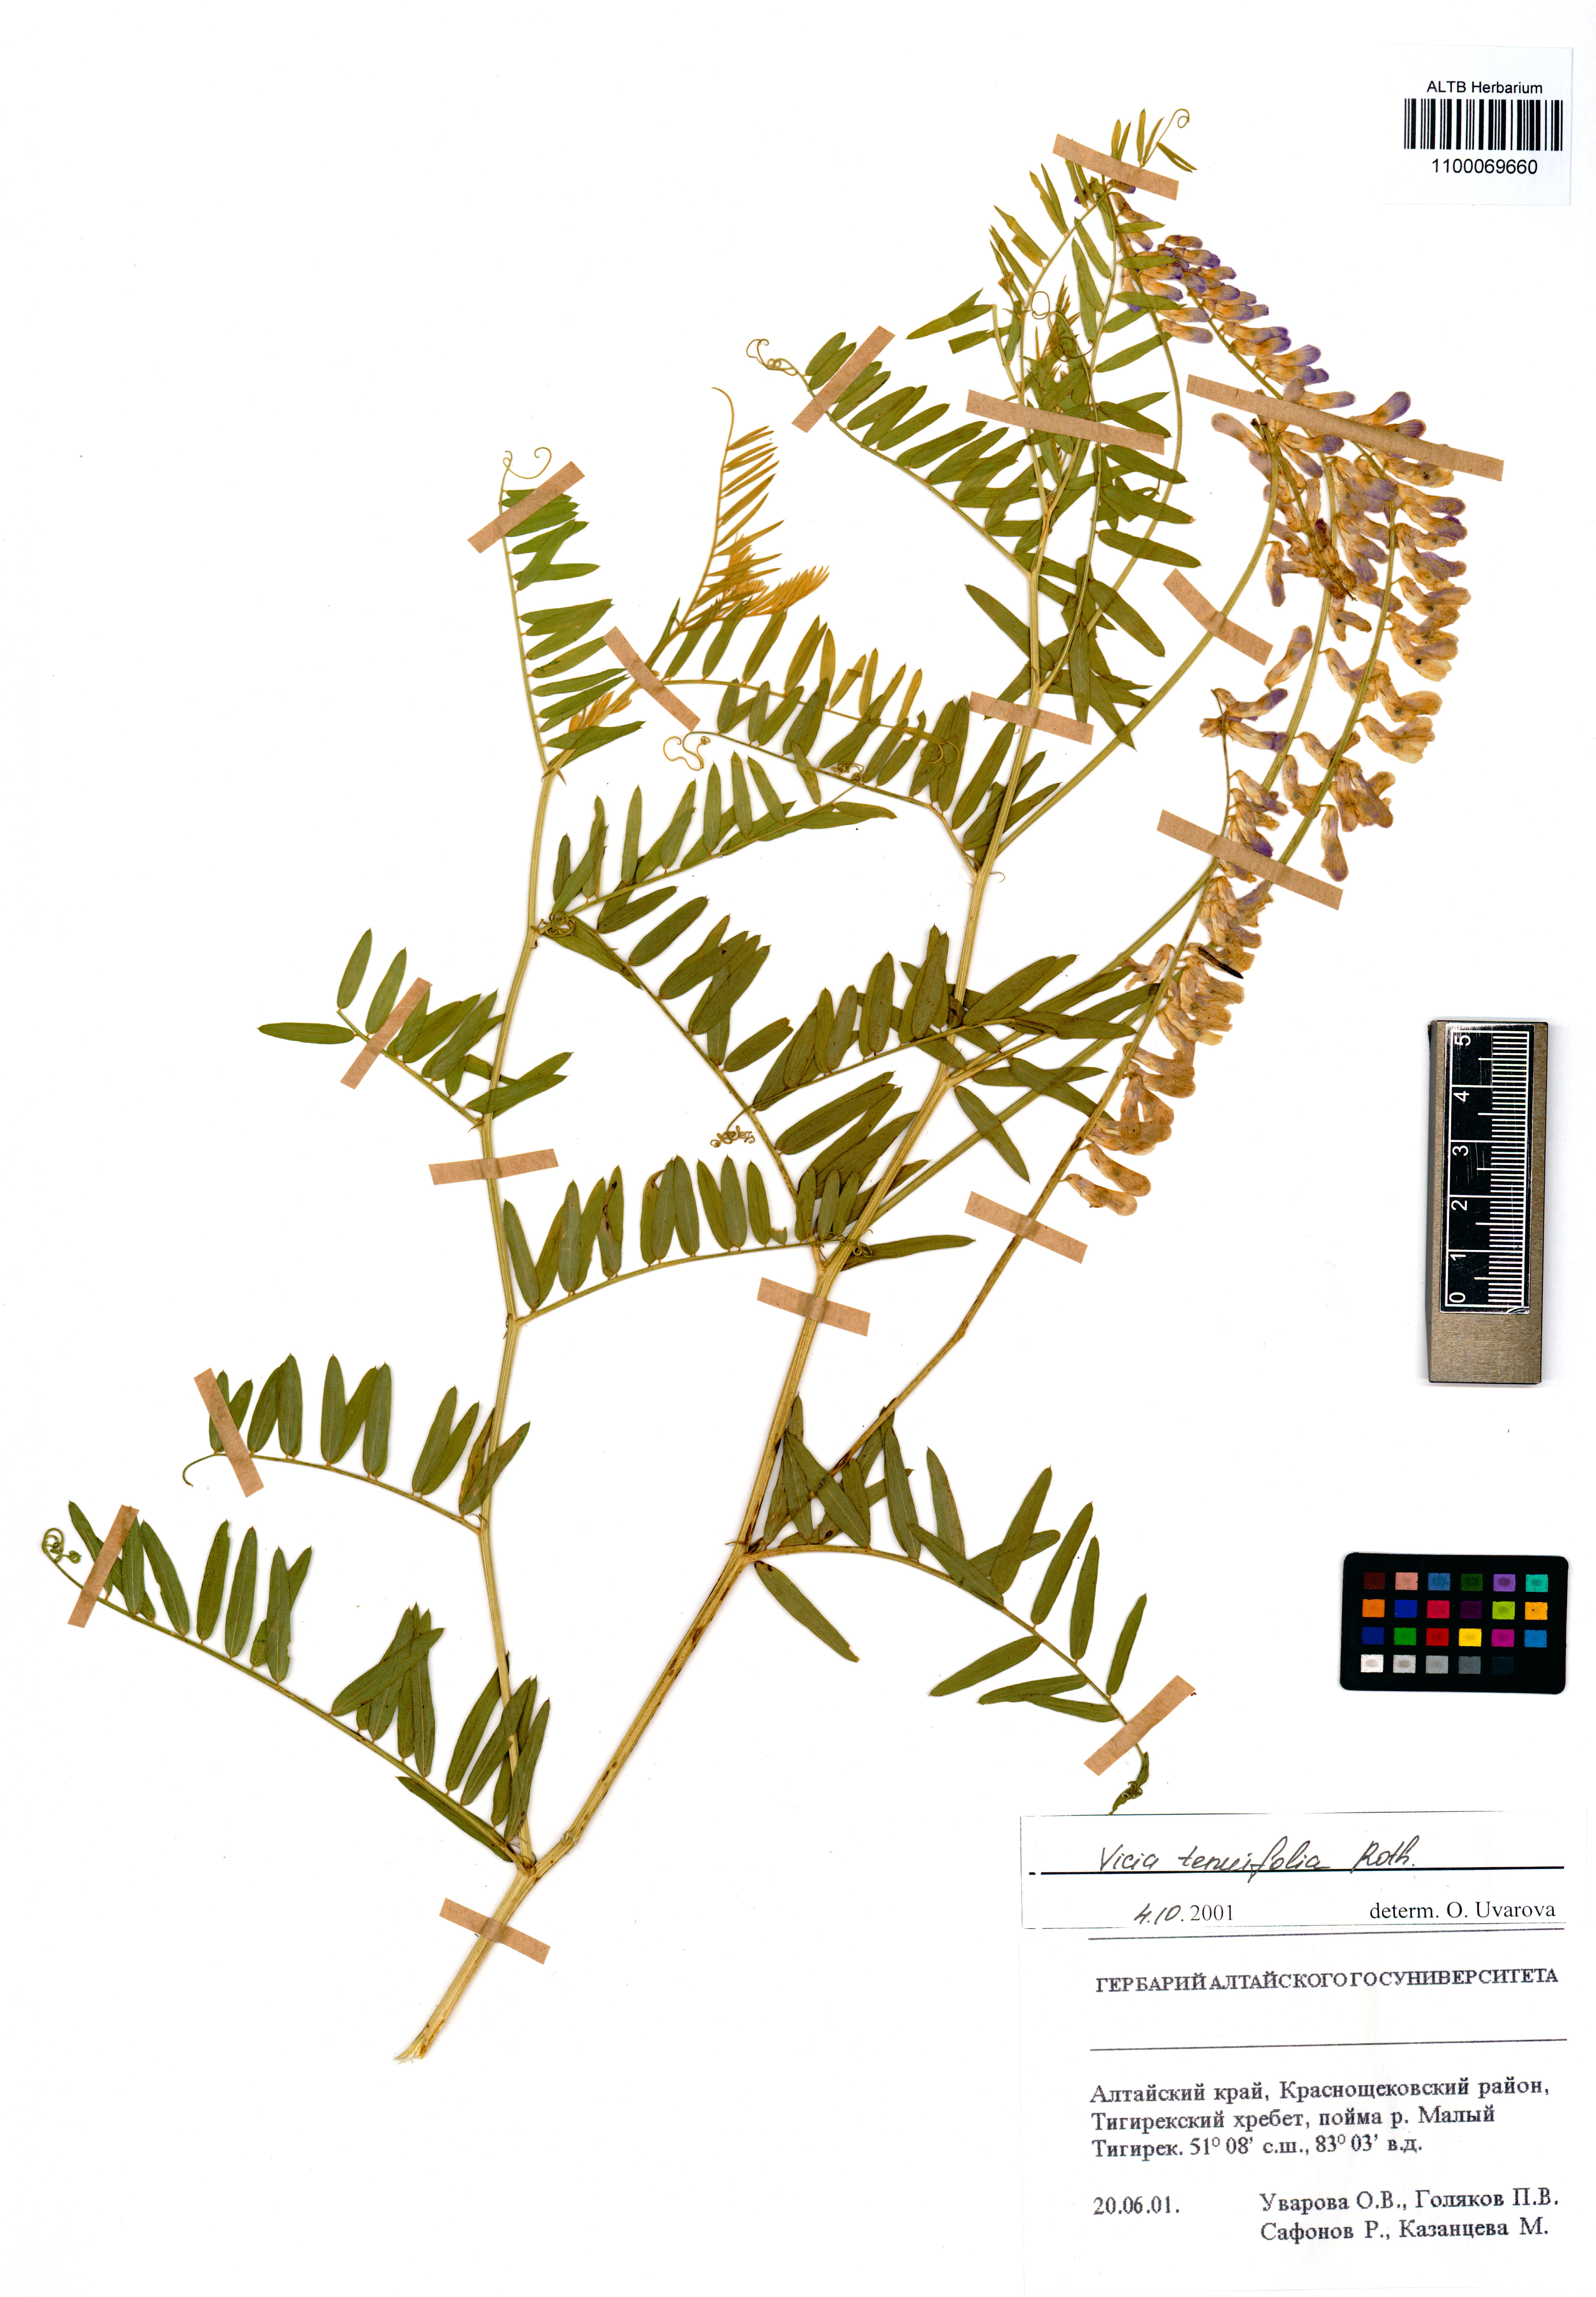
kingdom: Plantae
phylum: Tracheophyta
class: Magnoliopsida
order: Fabales
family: Fabaceae
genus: Vicia
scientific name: Vicia tenuifolia
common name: Fine-leaved vetch
